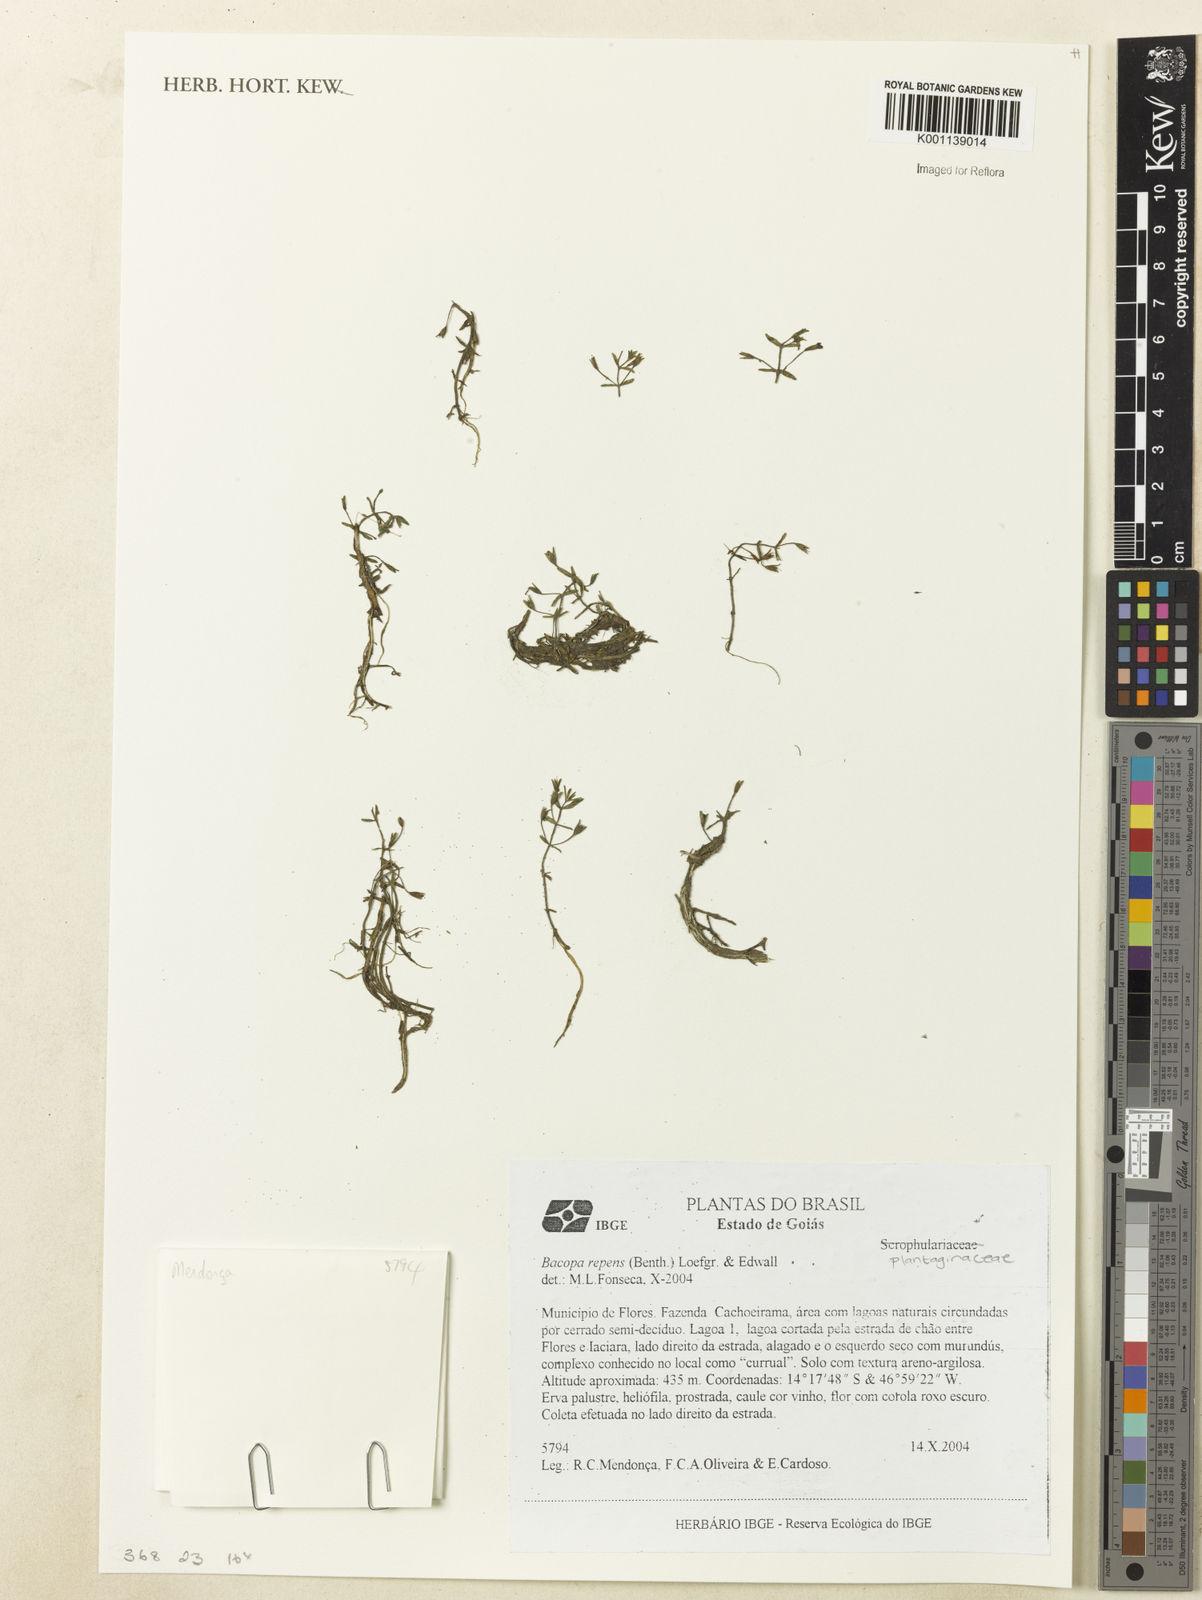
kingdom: Plantae
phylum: Tracheophyta
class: Magnoliopsida
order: Lamiales
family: Plantaginaceae
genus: Bacopa
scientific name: Bacopa repens
